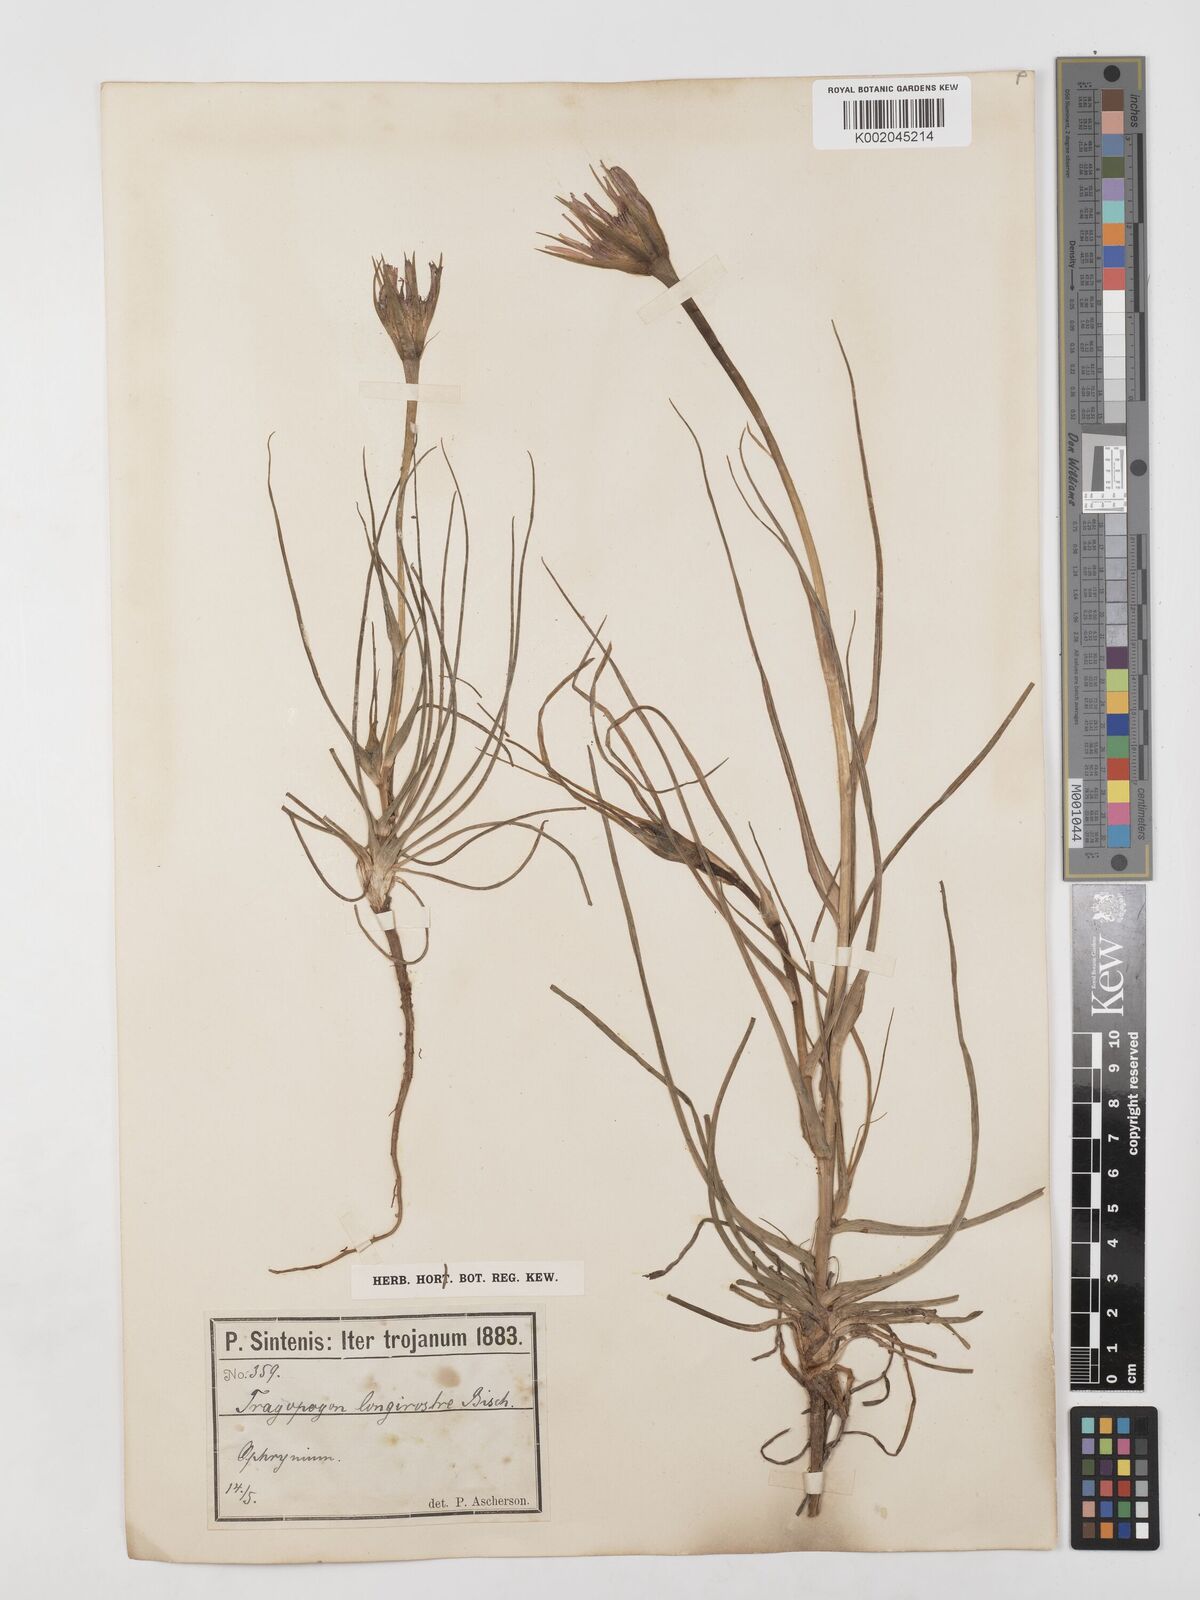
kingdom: Plantae
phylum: Tracheophyta
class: Magnoliopsida
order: Asterales
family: Asteraceae
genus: Tragopogon
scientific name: Tragopogon coelesyriacus
